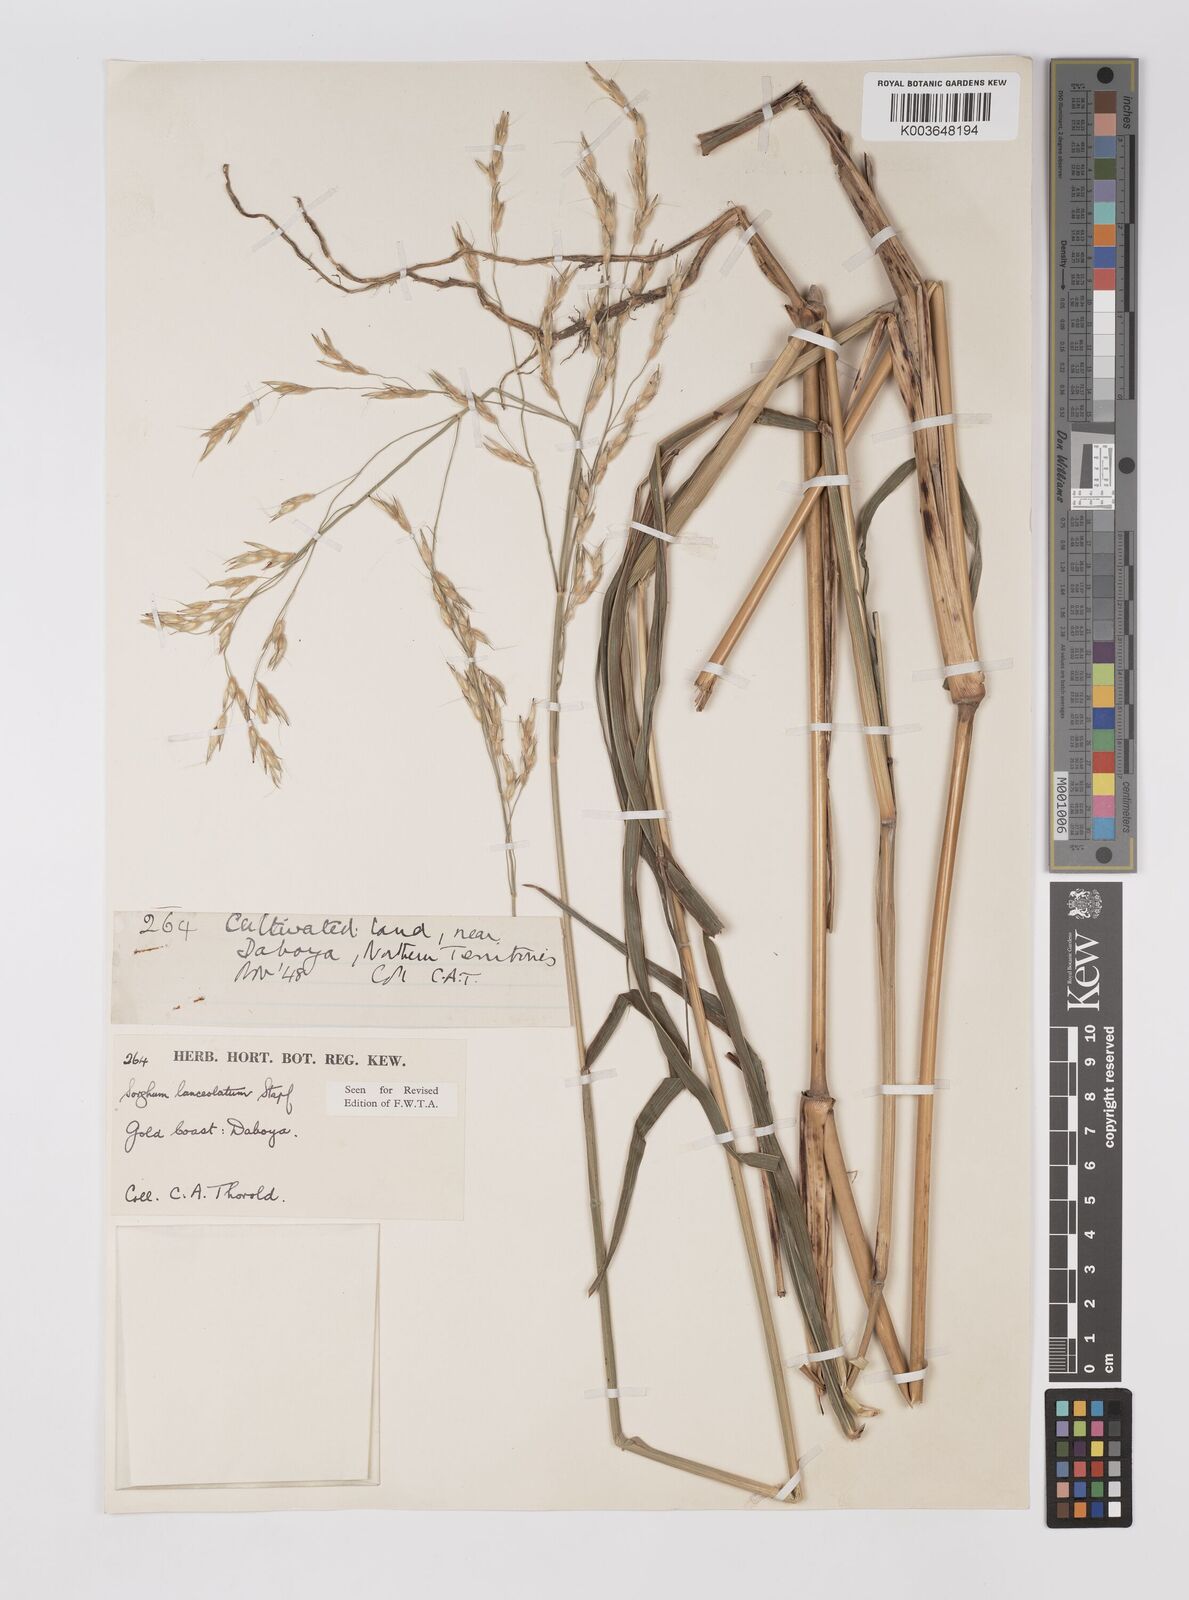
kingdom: Plantae
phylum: Tracheophyta
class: Liliopsida
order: Poales
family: Poaceae
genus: Sorghum
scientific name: Sorghum arundinaceum
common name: Sorghum
